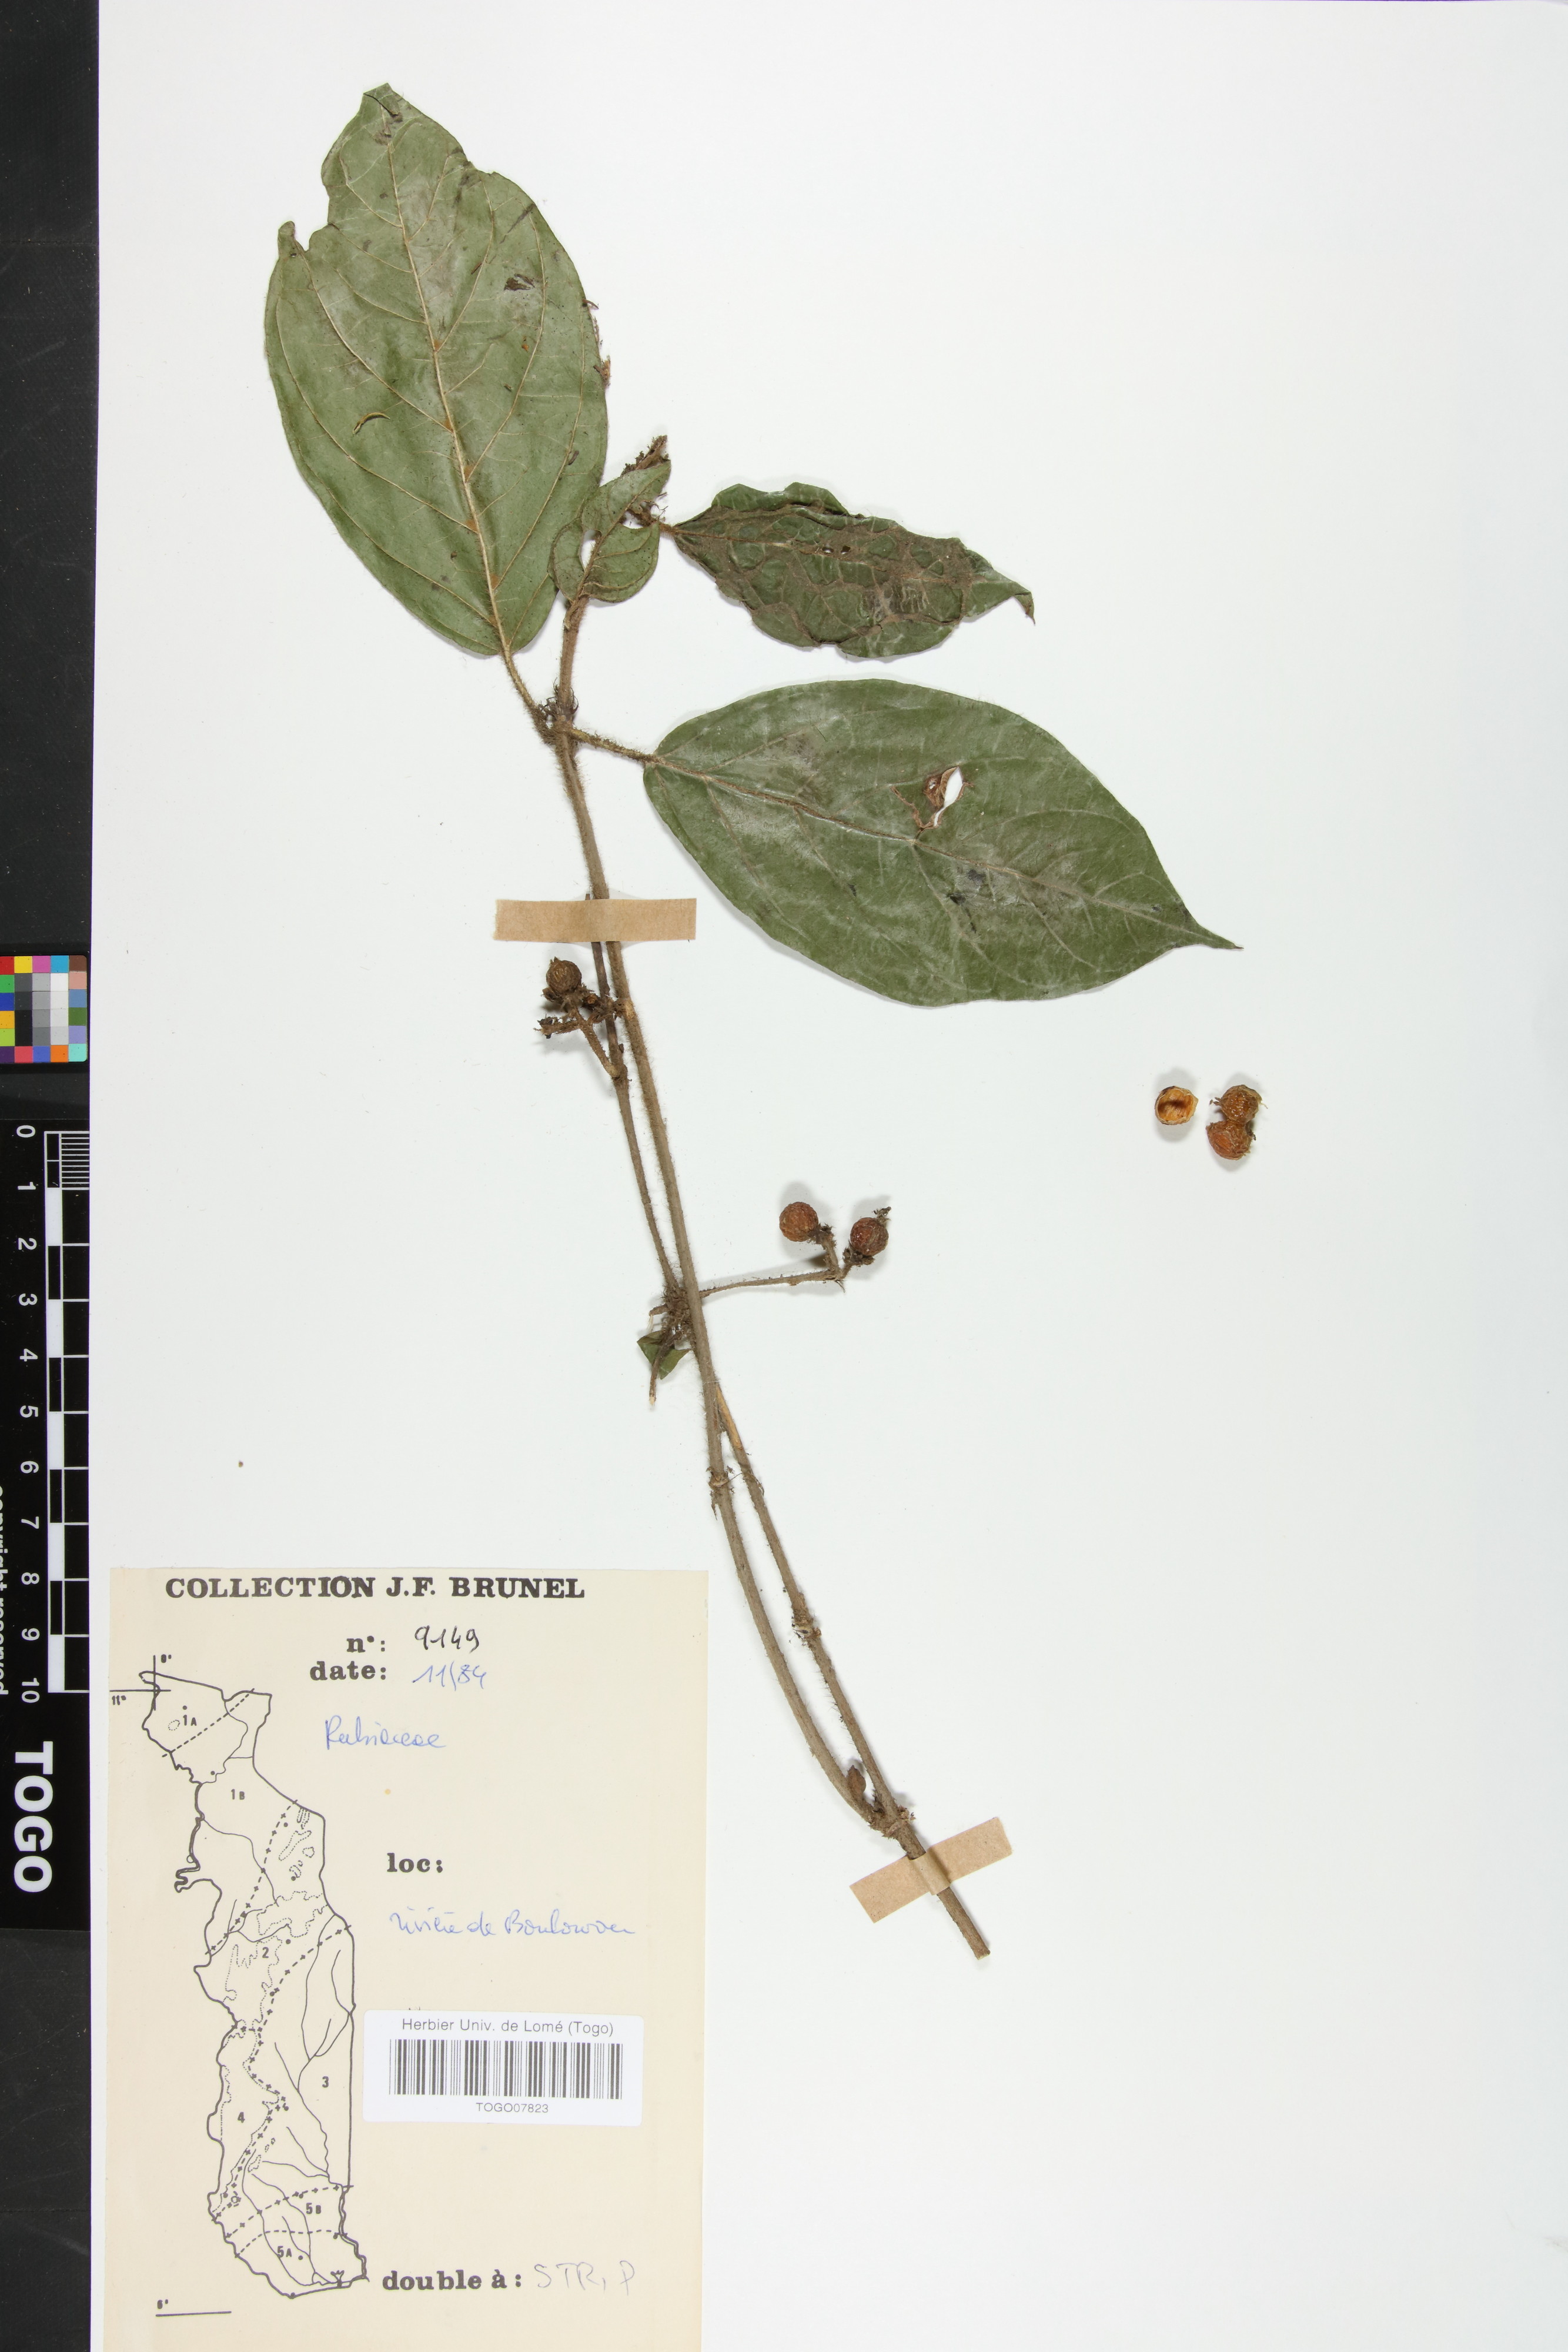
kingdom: Plantae
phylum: Tracheophyta
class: Magnoliopsida
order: Gentianales
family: Rubiaceae
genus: Rutidea
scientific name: Rutidea parviflora
